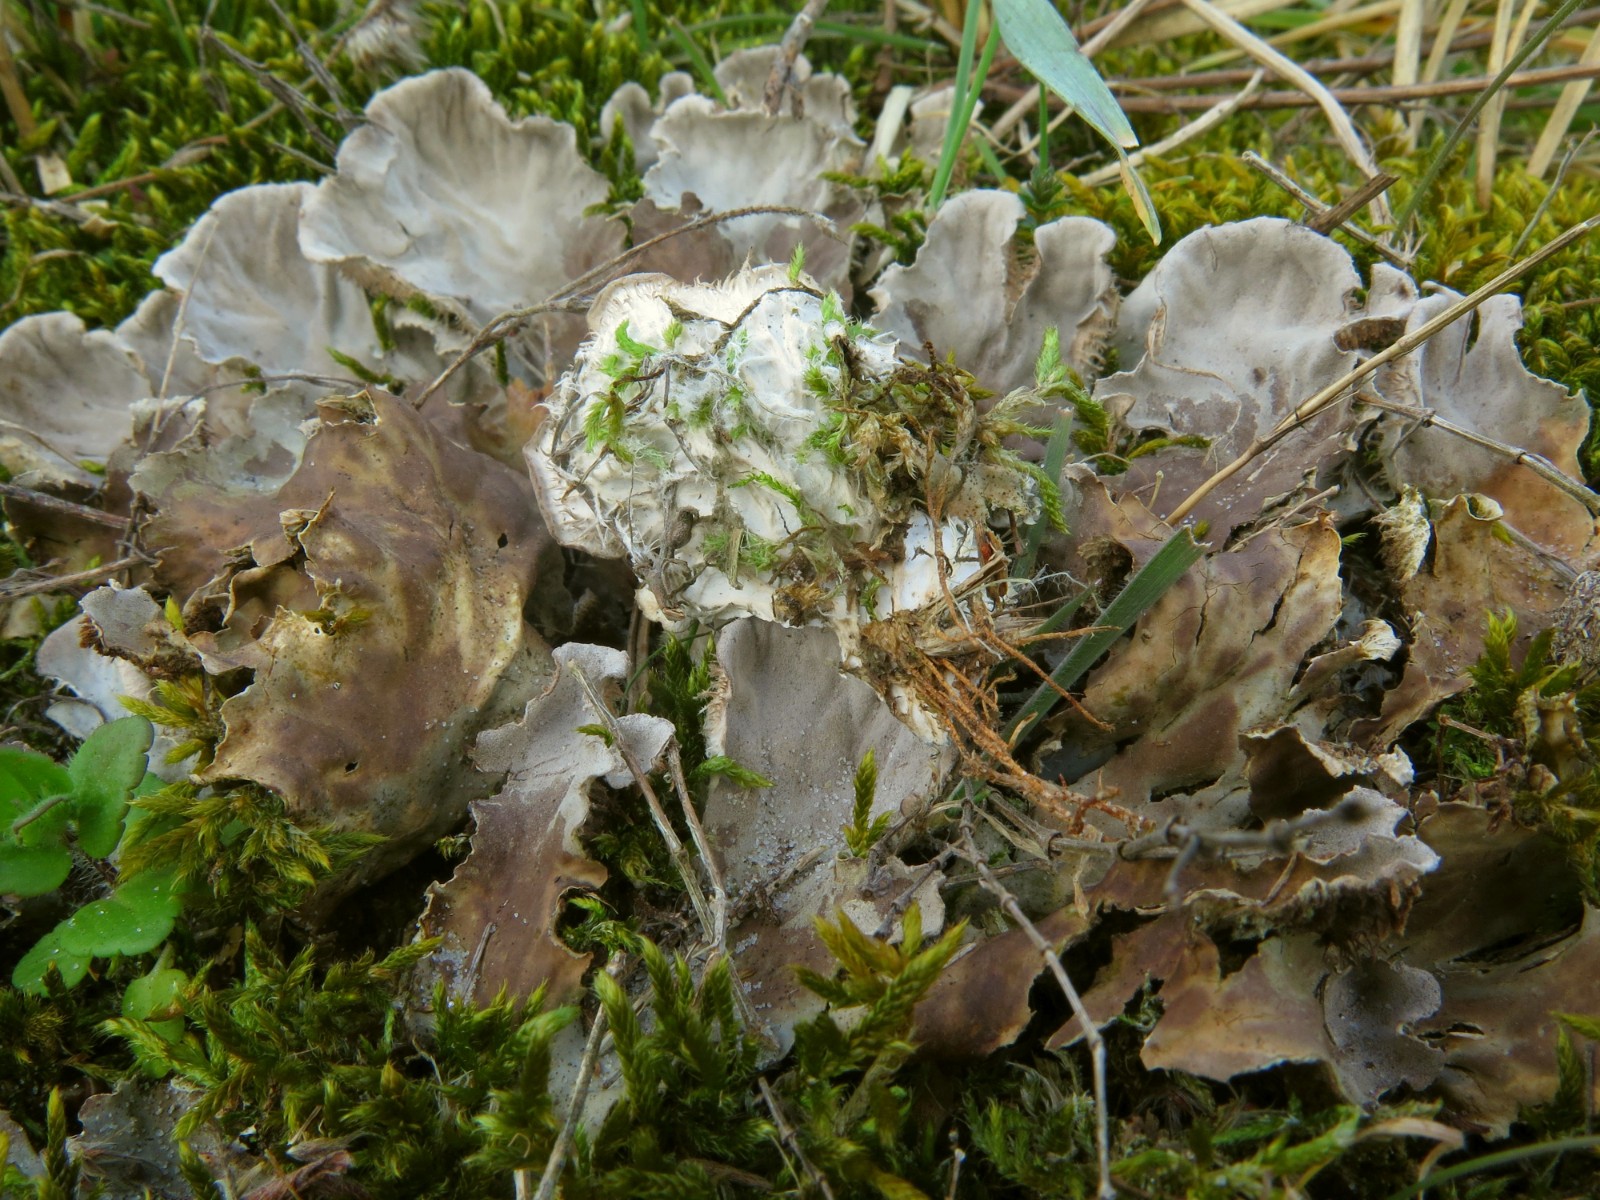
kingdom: Fungi
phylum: Ascomycota
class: Lecanoromycetes
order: Peltigerales
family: Peltigeraceae
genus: Peltigera
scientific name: Peltigera canina
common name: hunde-skjoldlav
